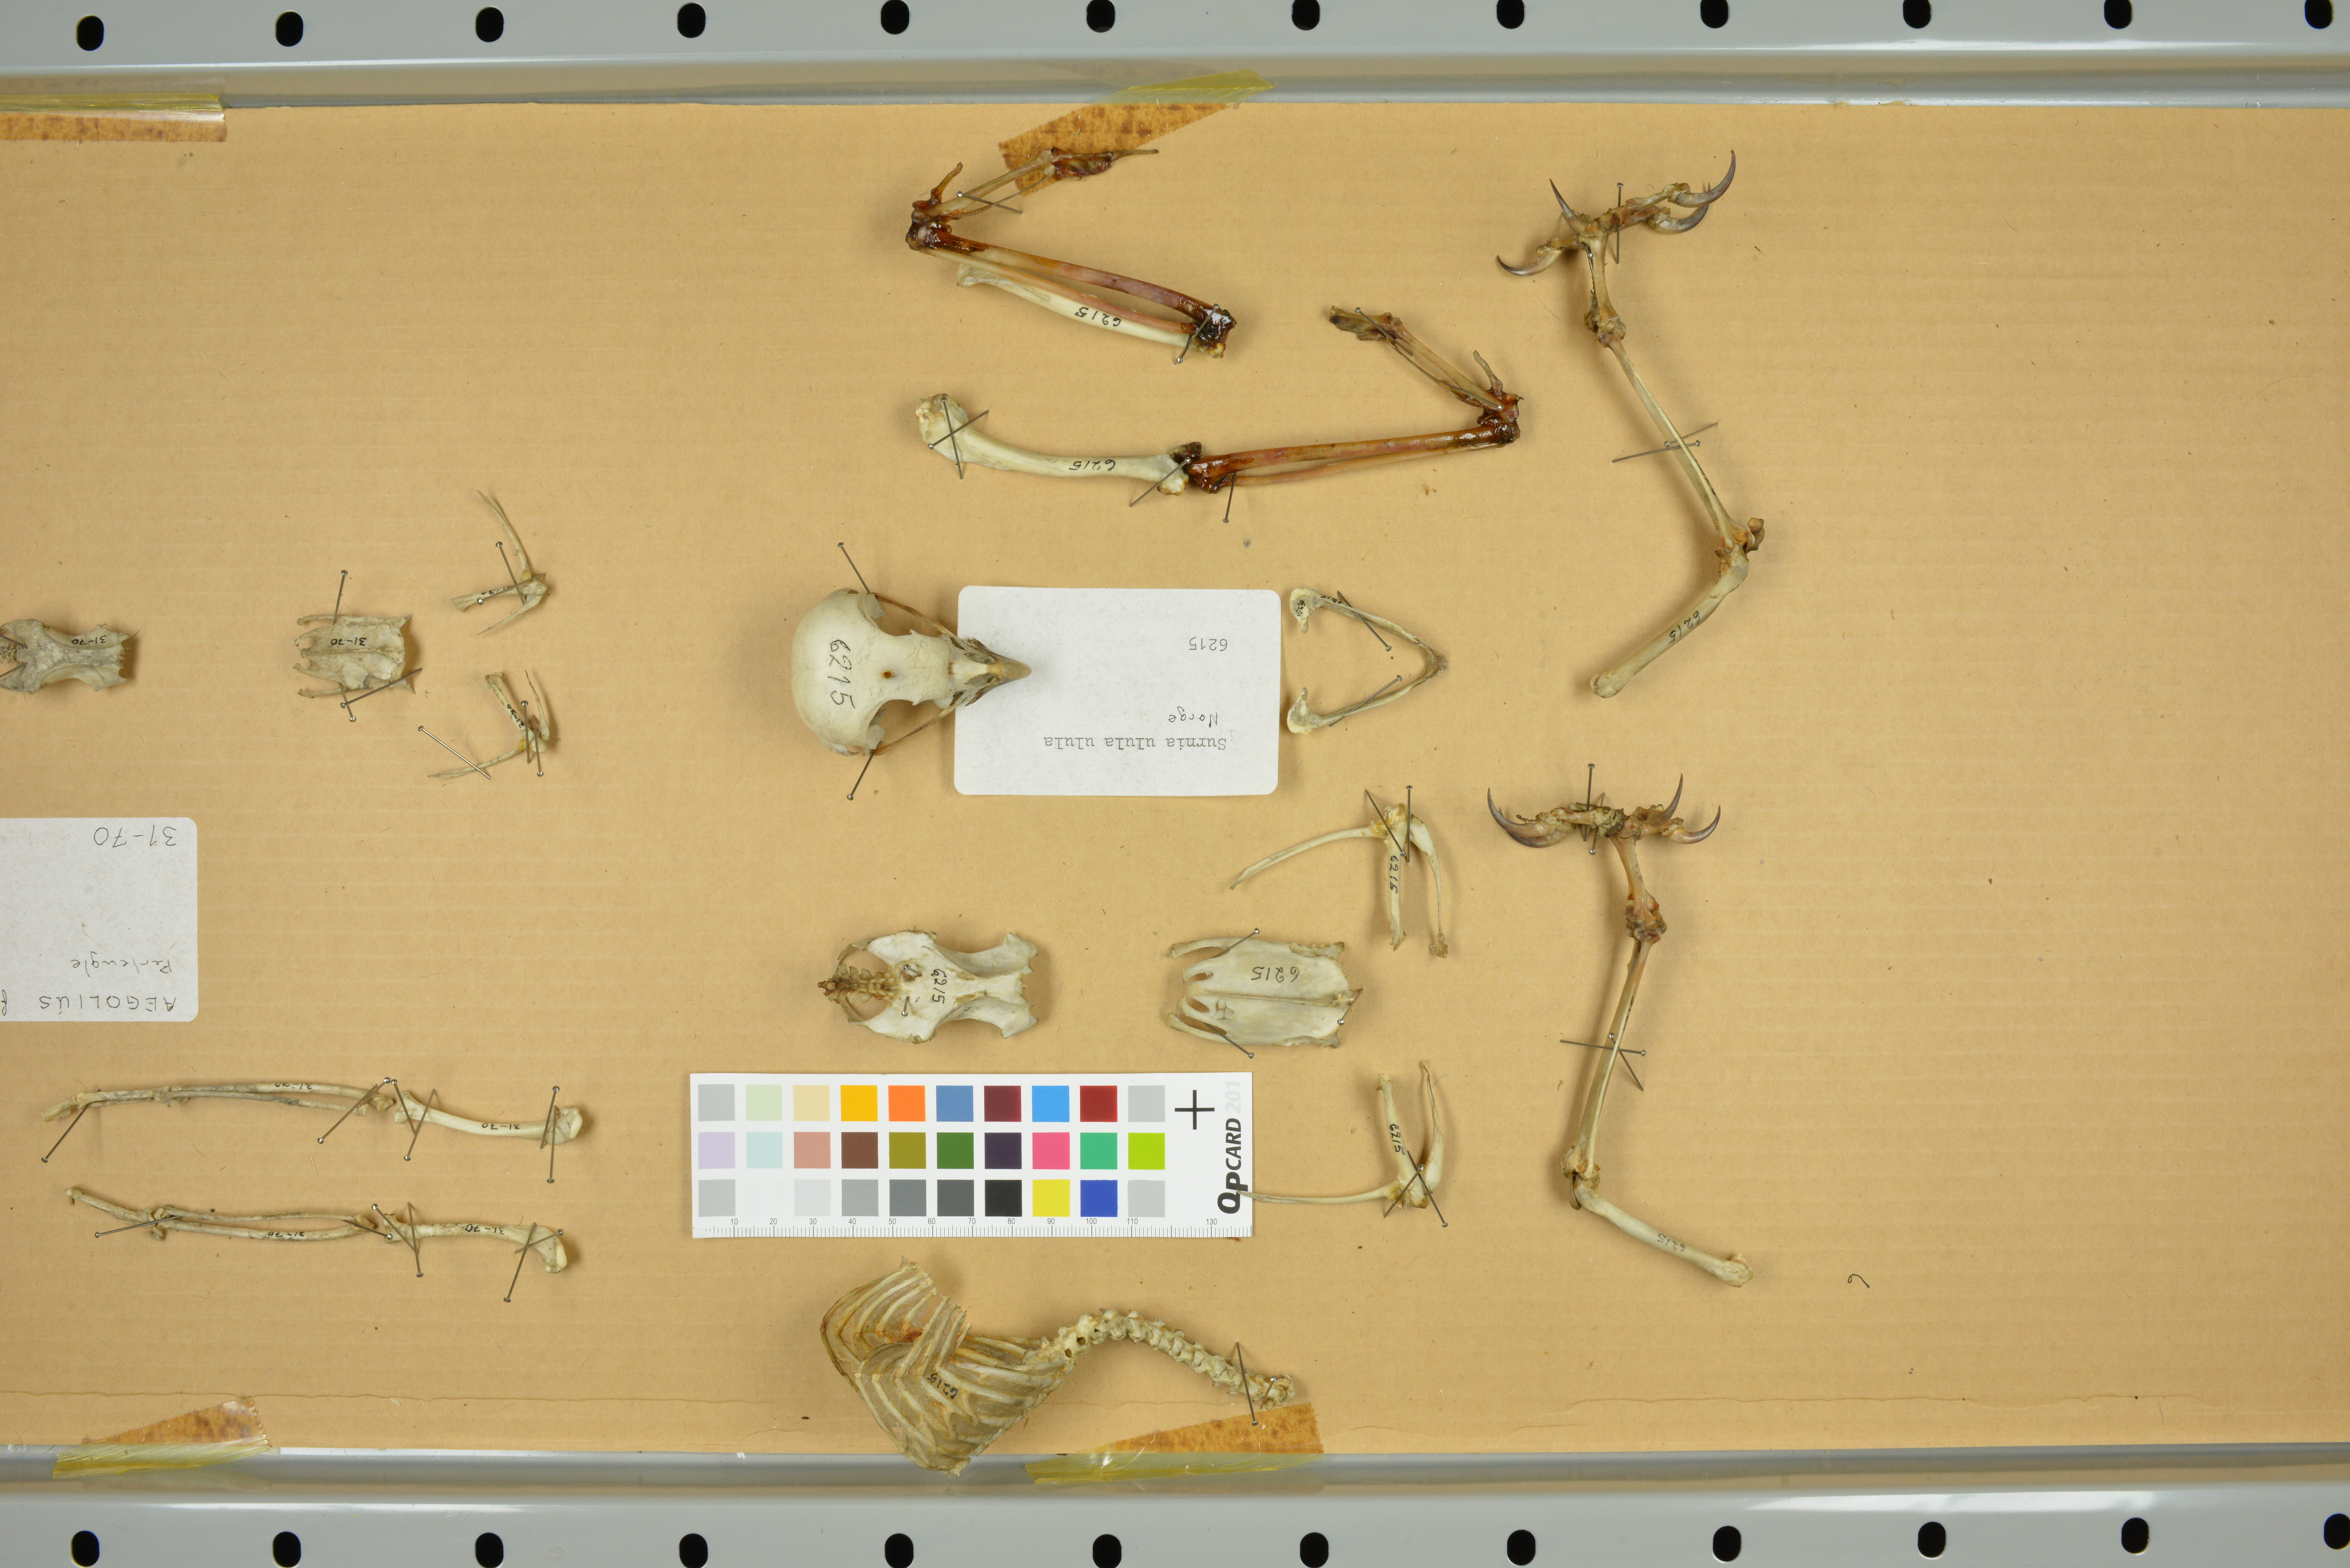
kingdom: Animalia
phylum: Chordata
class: Aves
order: Strigiformes
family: Strigidae
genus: Aegolius
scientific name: Aegolius funereus
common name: Boreal owl
